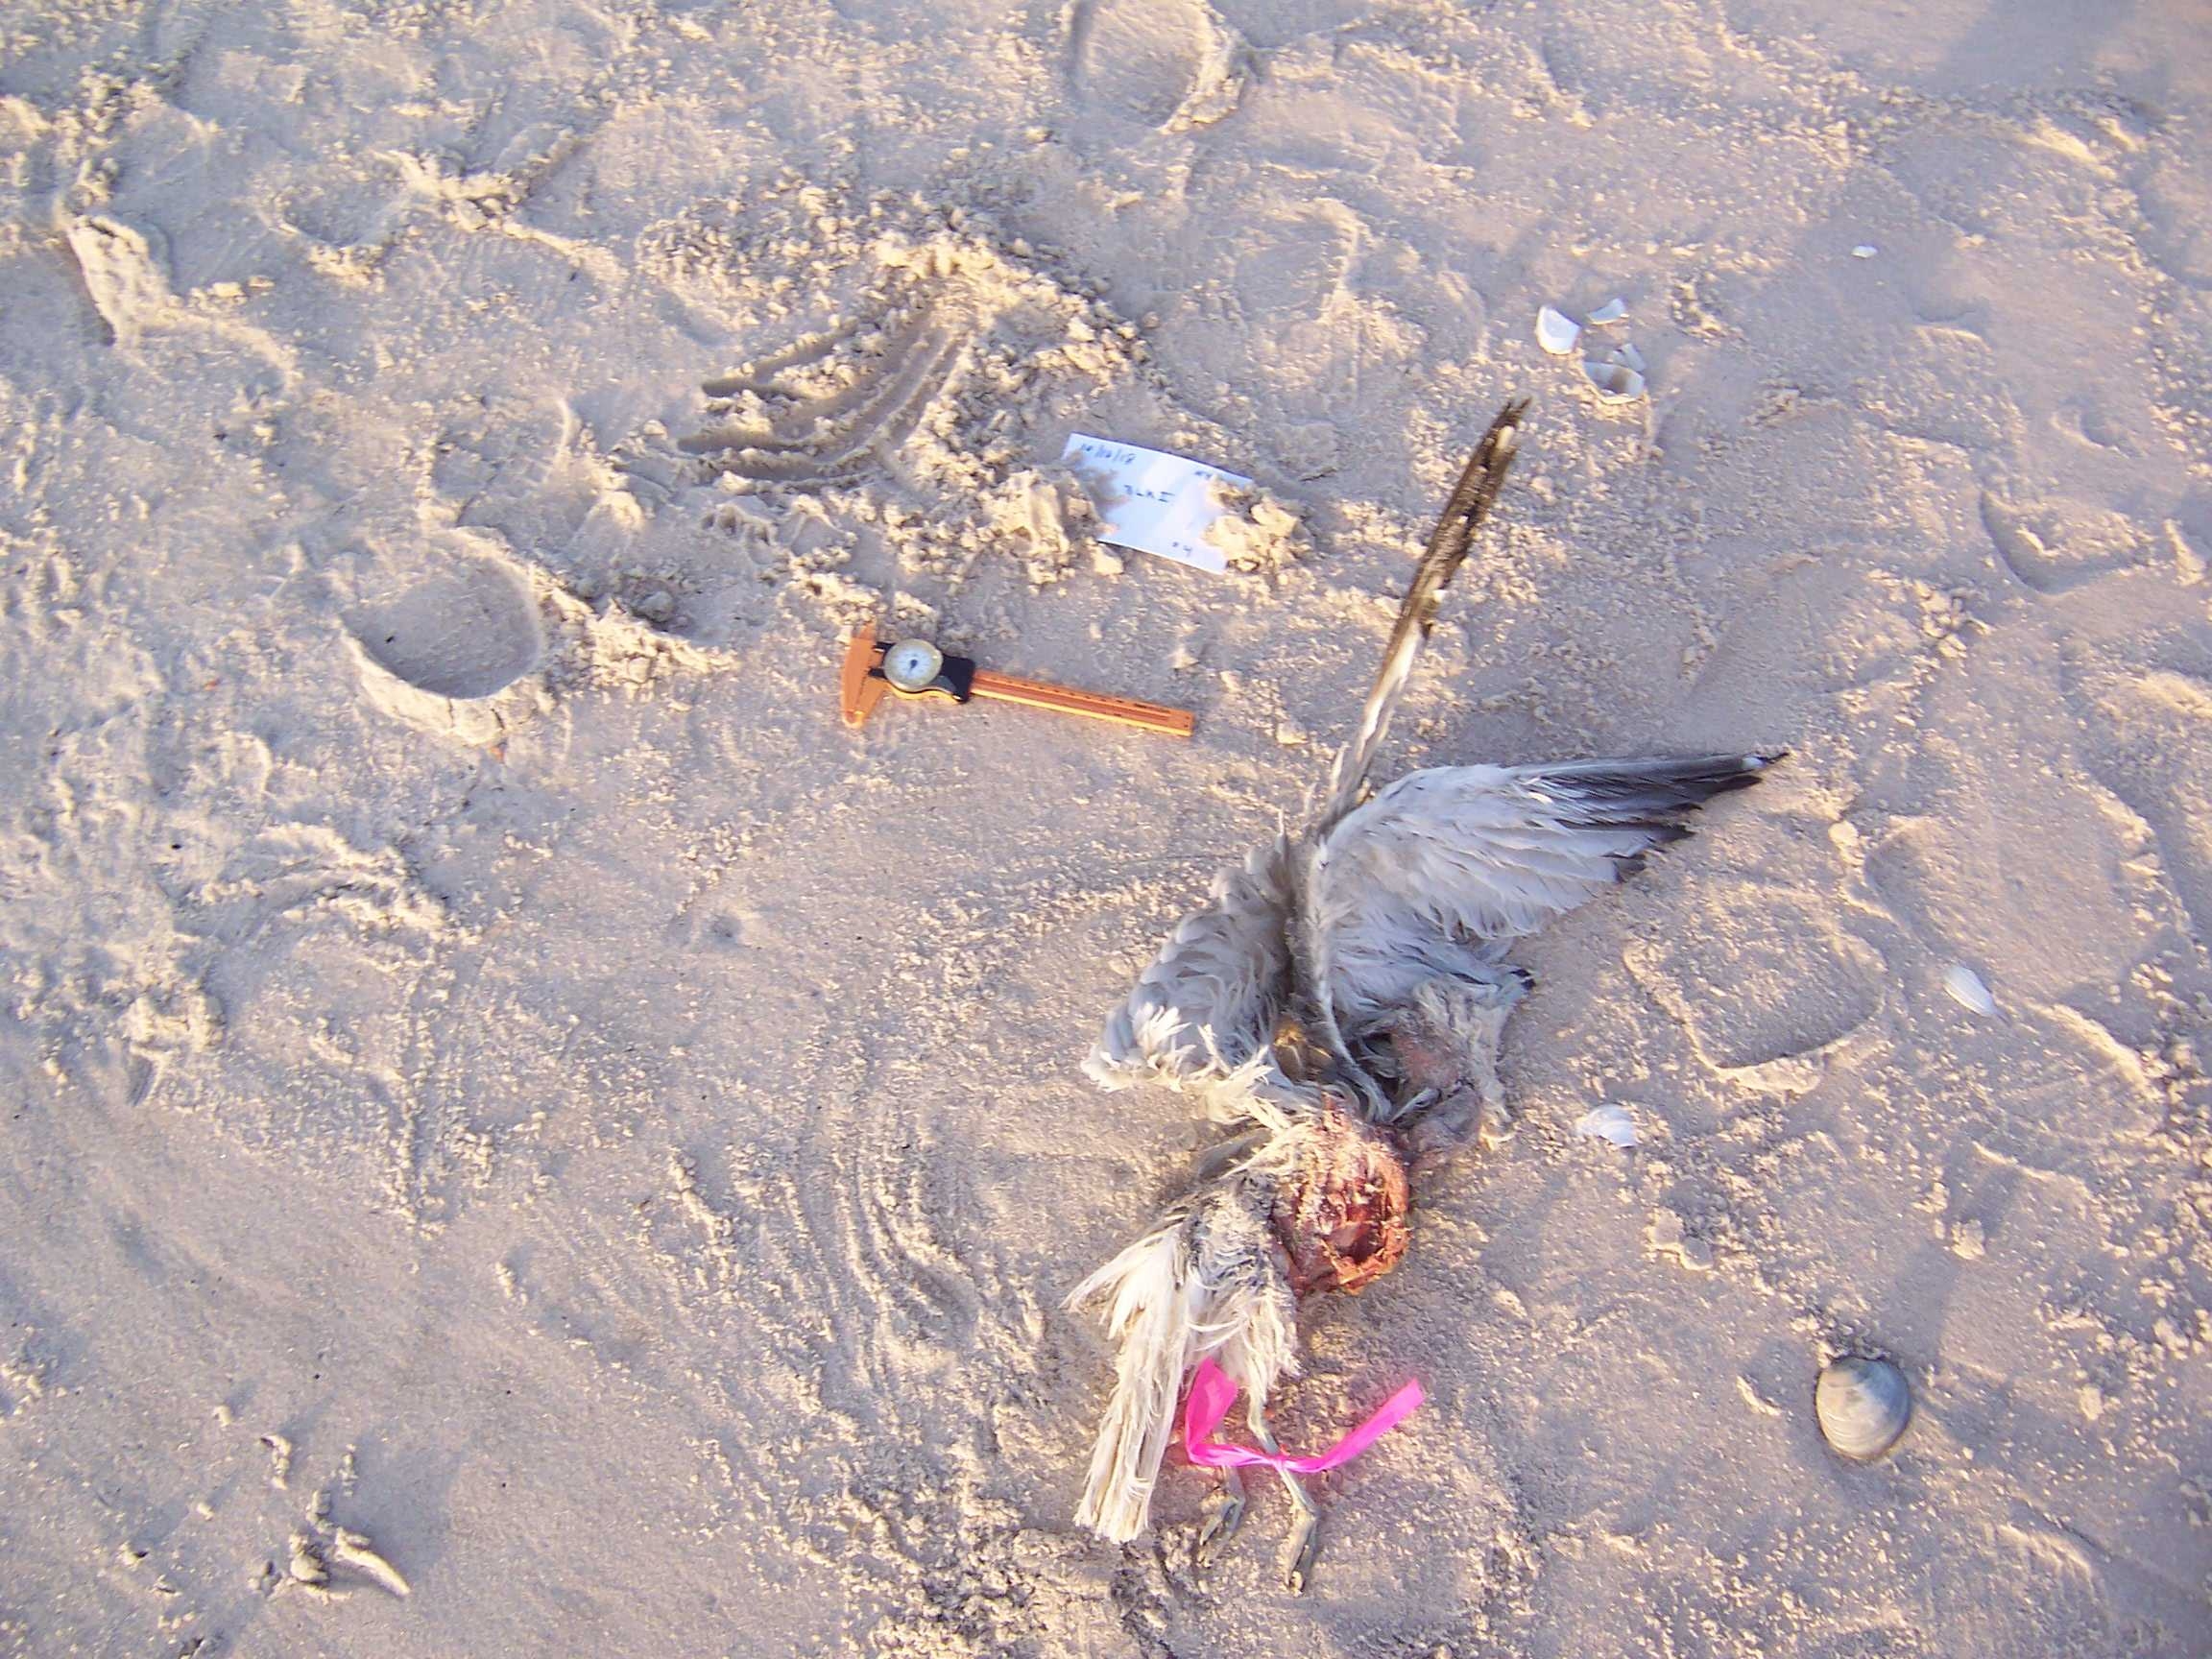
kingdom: Animalia
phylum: Chordata
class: Aves
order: Charadriiformes
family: Laridae
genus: Larus
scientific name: Larus marinus
